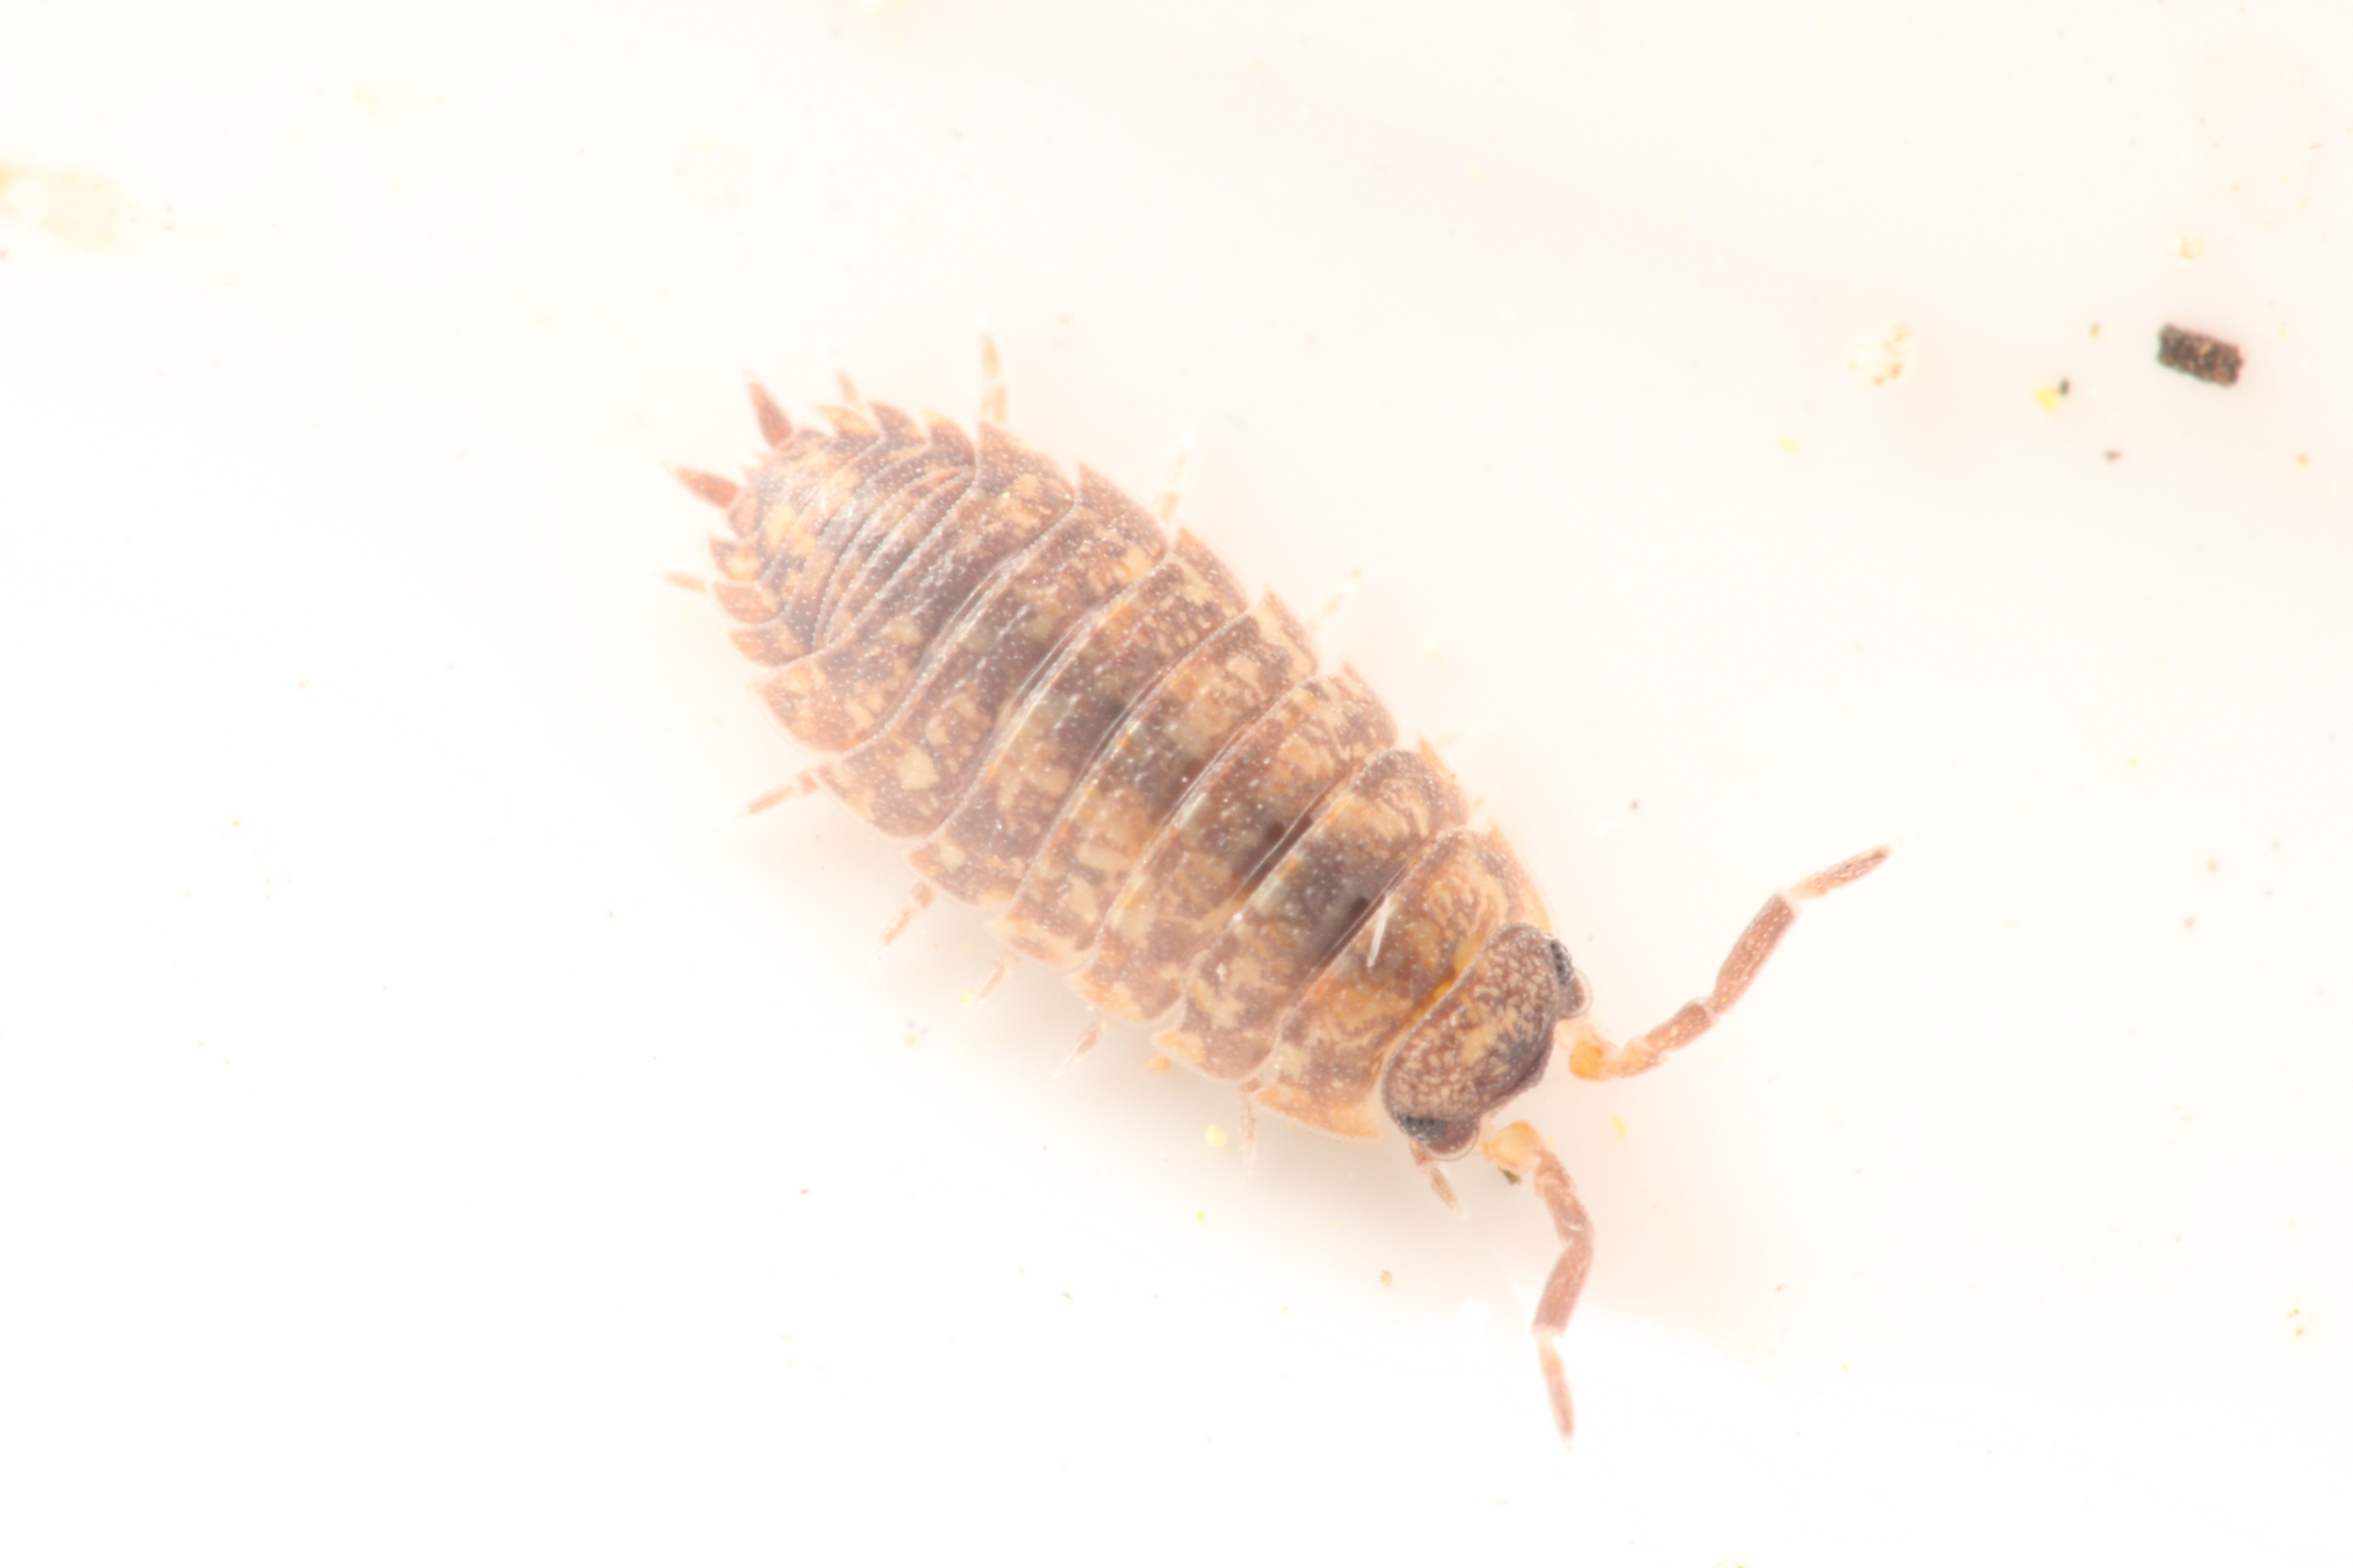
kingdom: Animalia
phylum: Arthropoda
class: Malacostraca
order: Isopoda
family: Porcellionidae
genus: Porcellio
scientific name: Porcellio scaber
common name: Grå bænkebider
